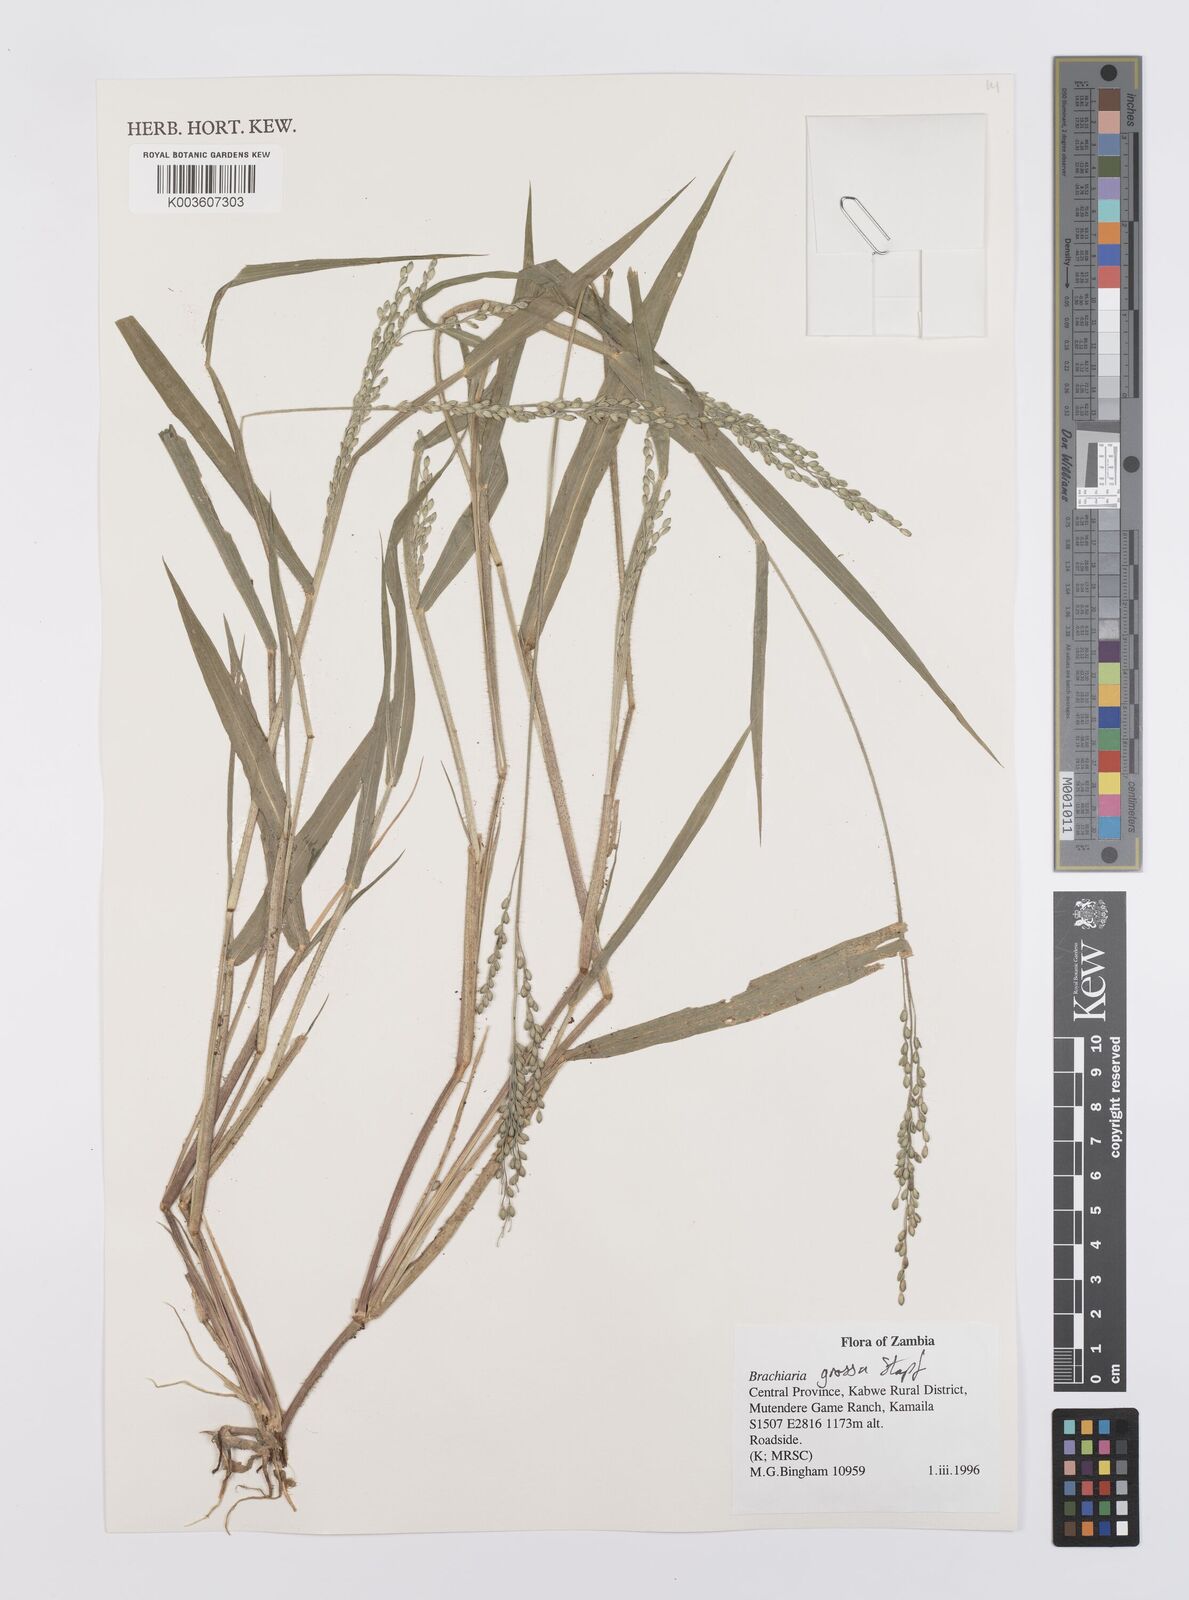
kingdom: Plantae
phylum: Tracheophyta
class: Liliopsida
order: Poales
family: Poaceae
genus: Urochloa
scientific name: Urochloa Brachiaria grossa
